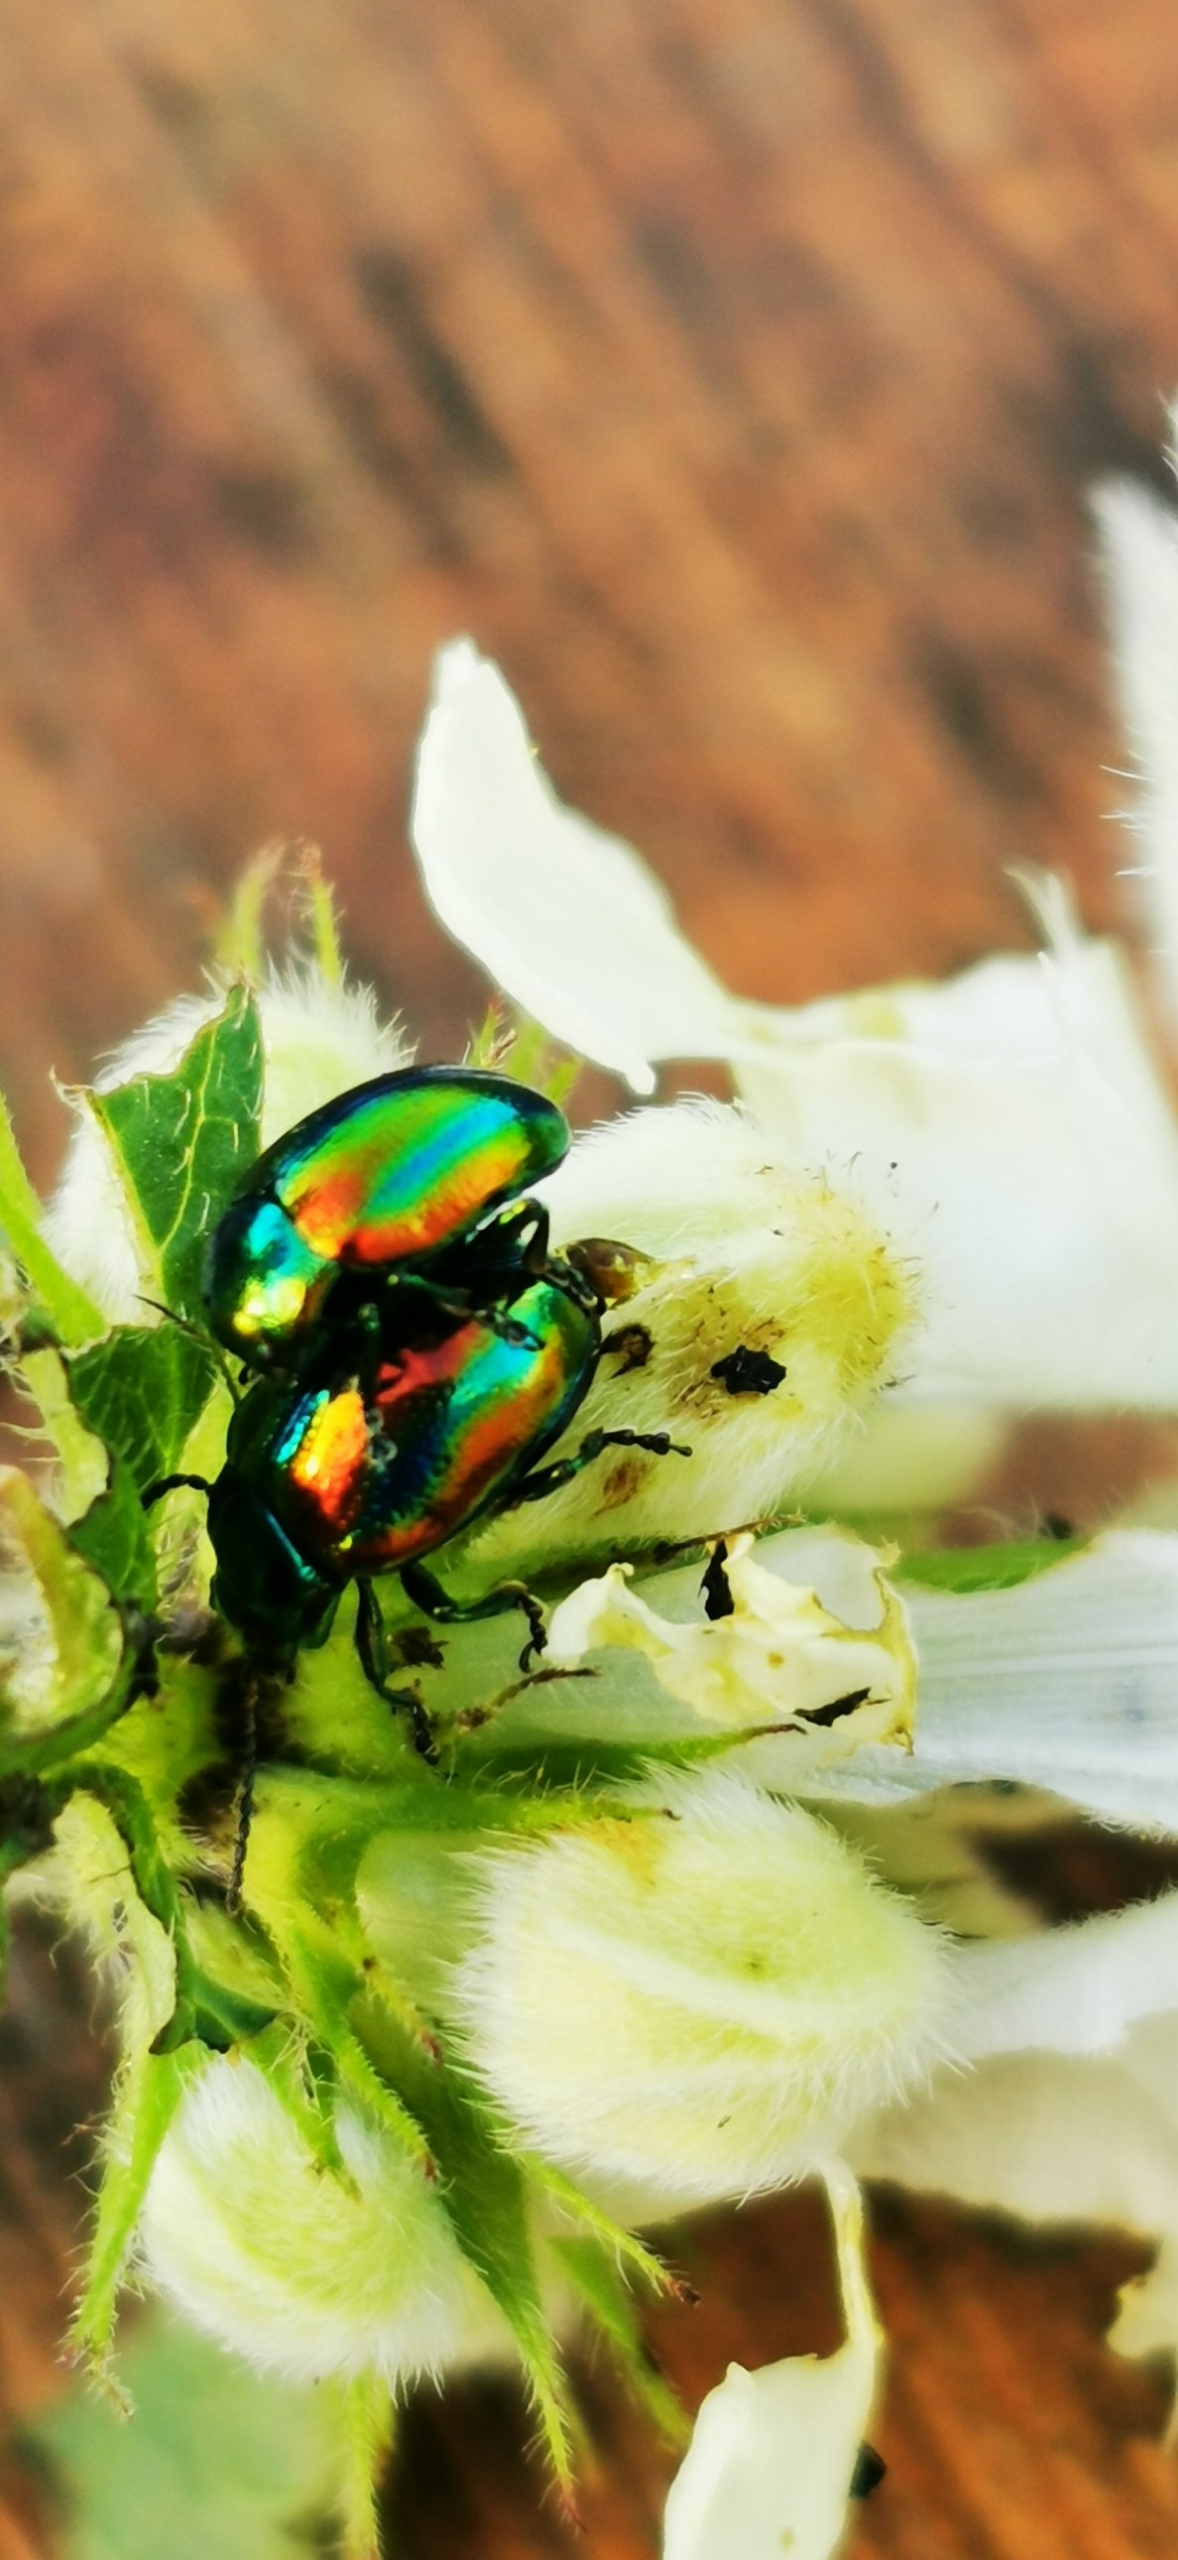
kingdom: Animalia
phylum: Arthropoda
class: Insecta
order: Coleoptera
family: Chrysomelidae
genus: Chrysolina
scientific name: Chrysolina fastuosa
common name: Tvetandbladbille
